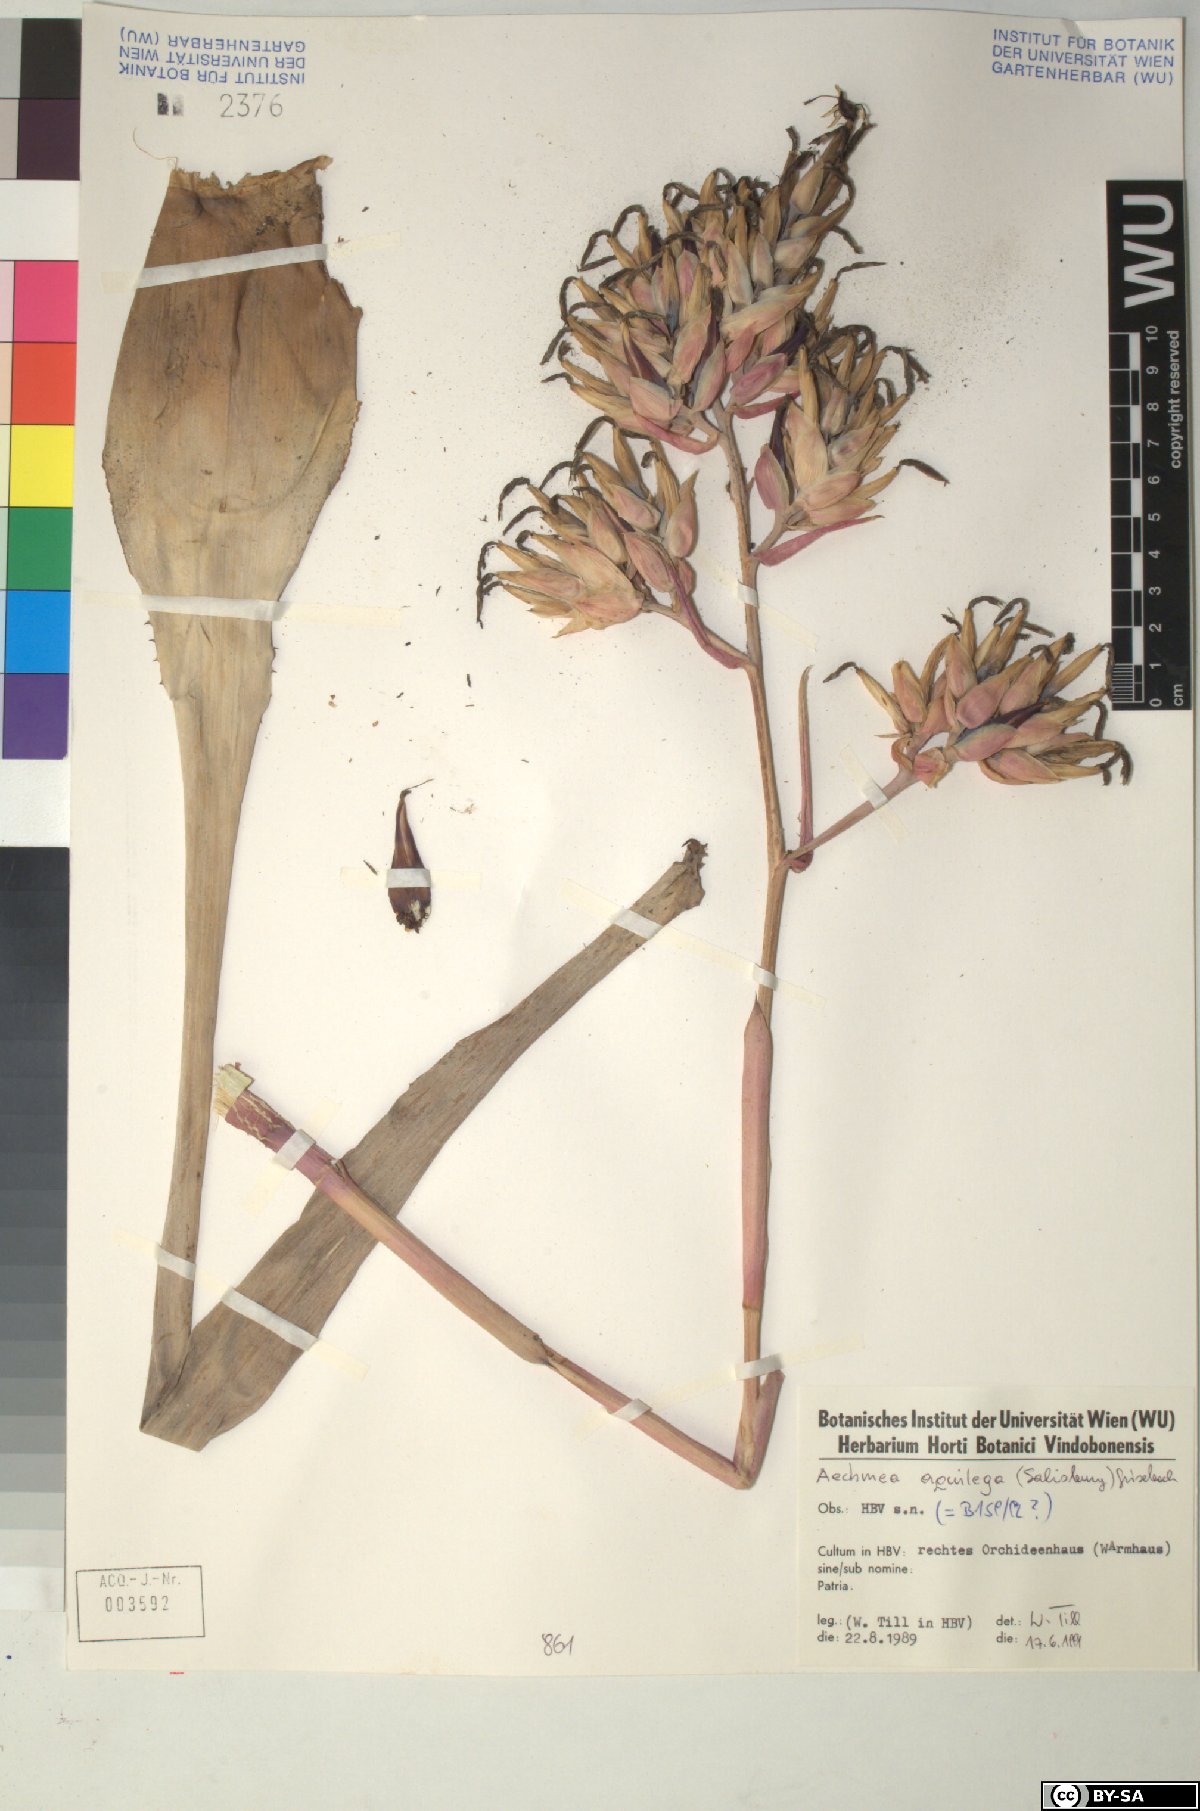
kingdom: Plantae
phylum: Tracheophyta
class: Liliopsida
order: Poales
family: Bromeliaceae
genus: Aechmea
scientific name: Aechmea aquilega
